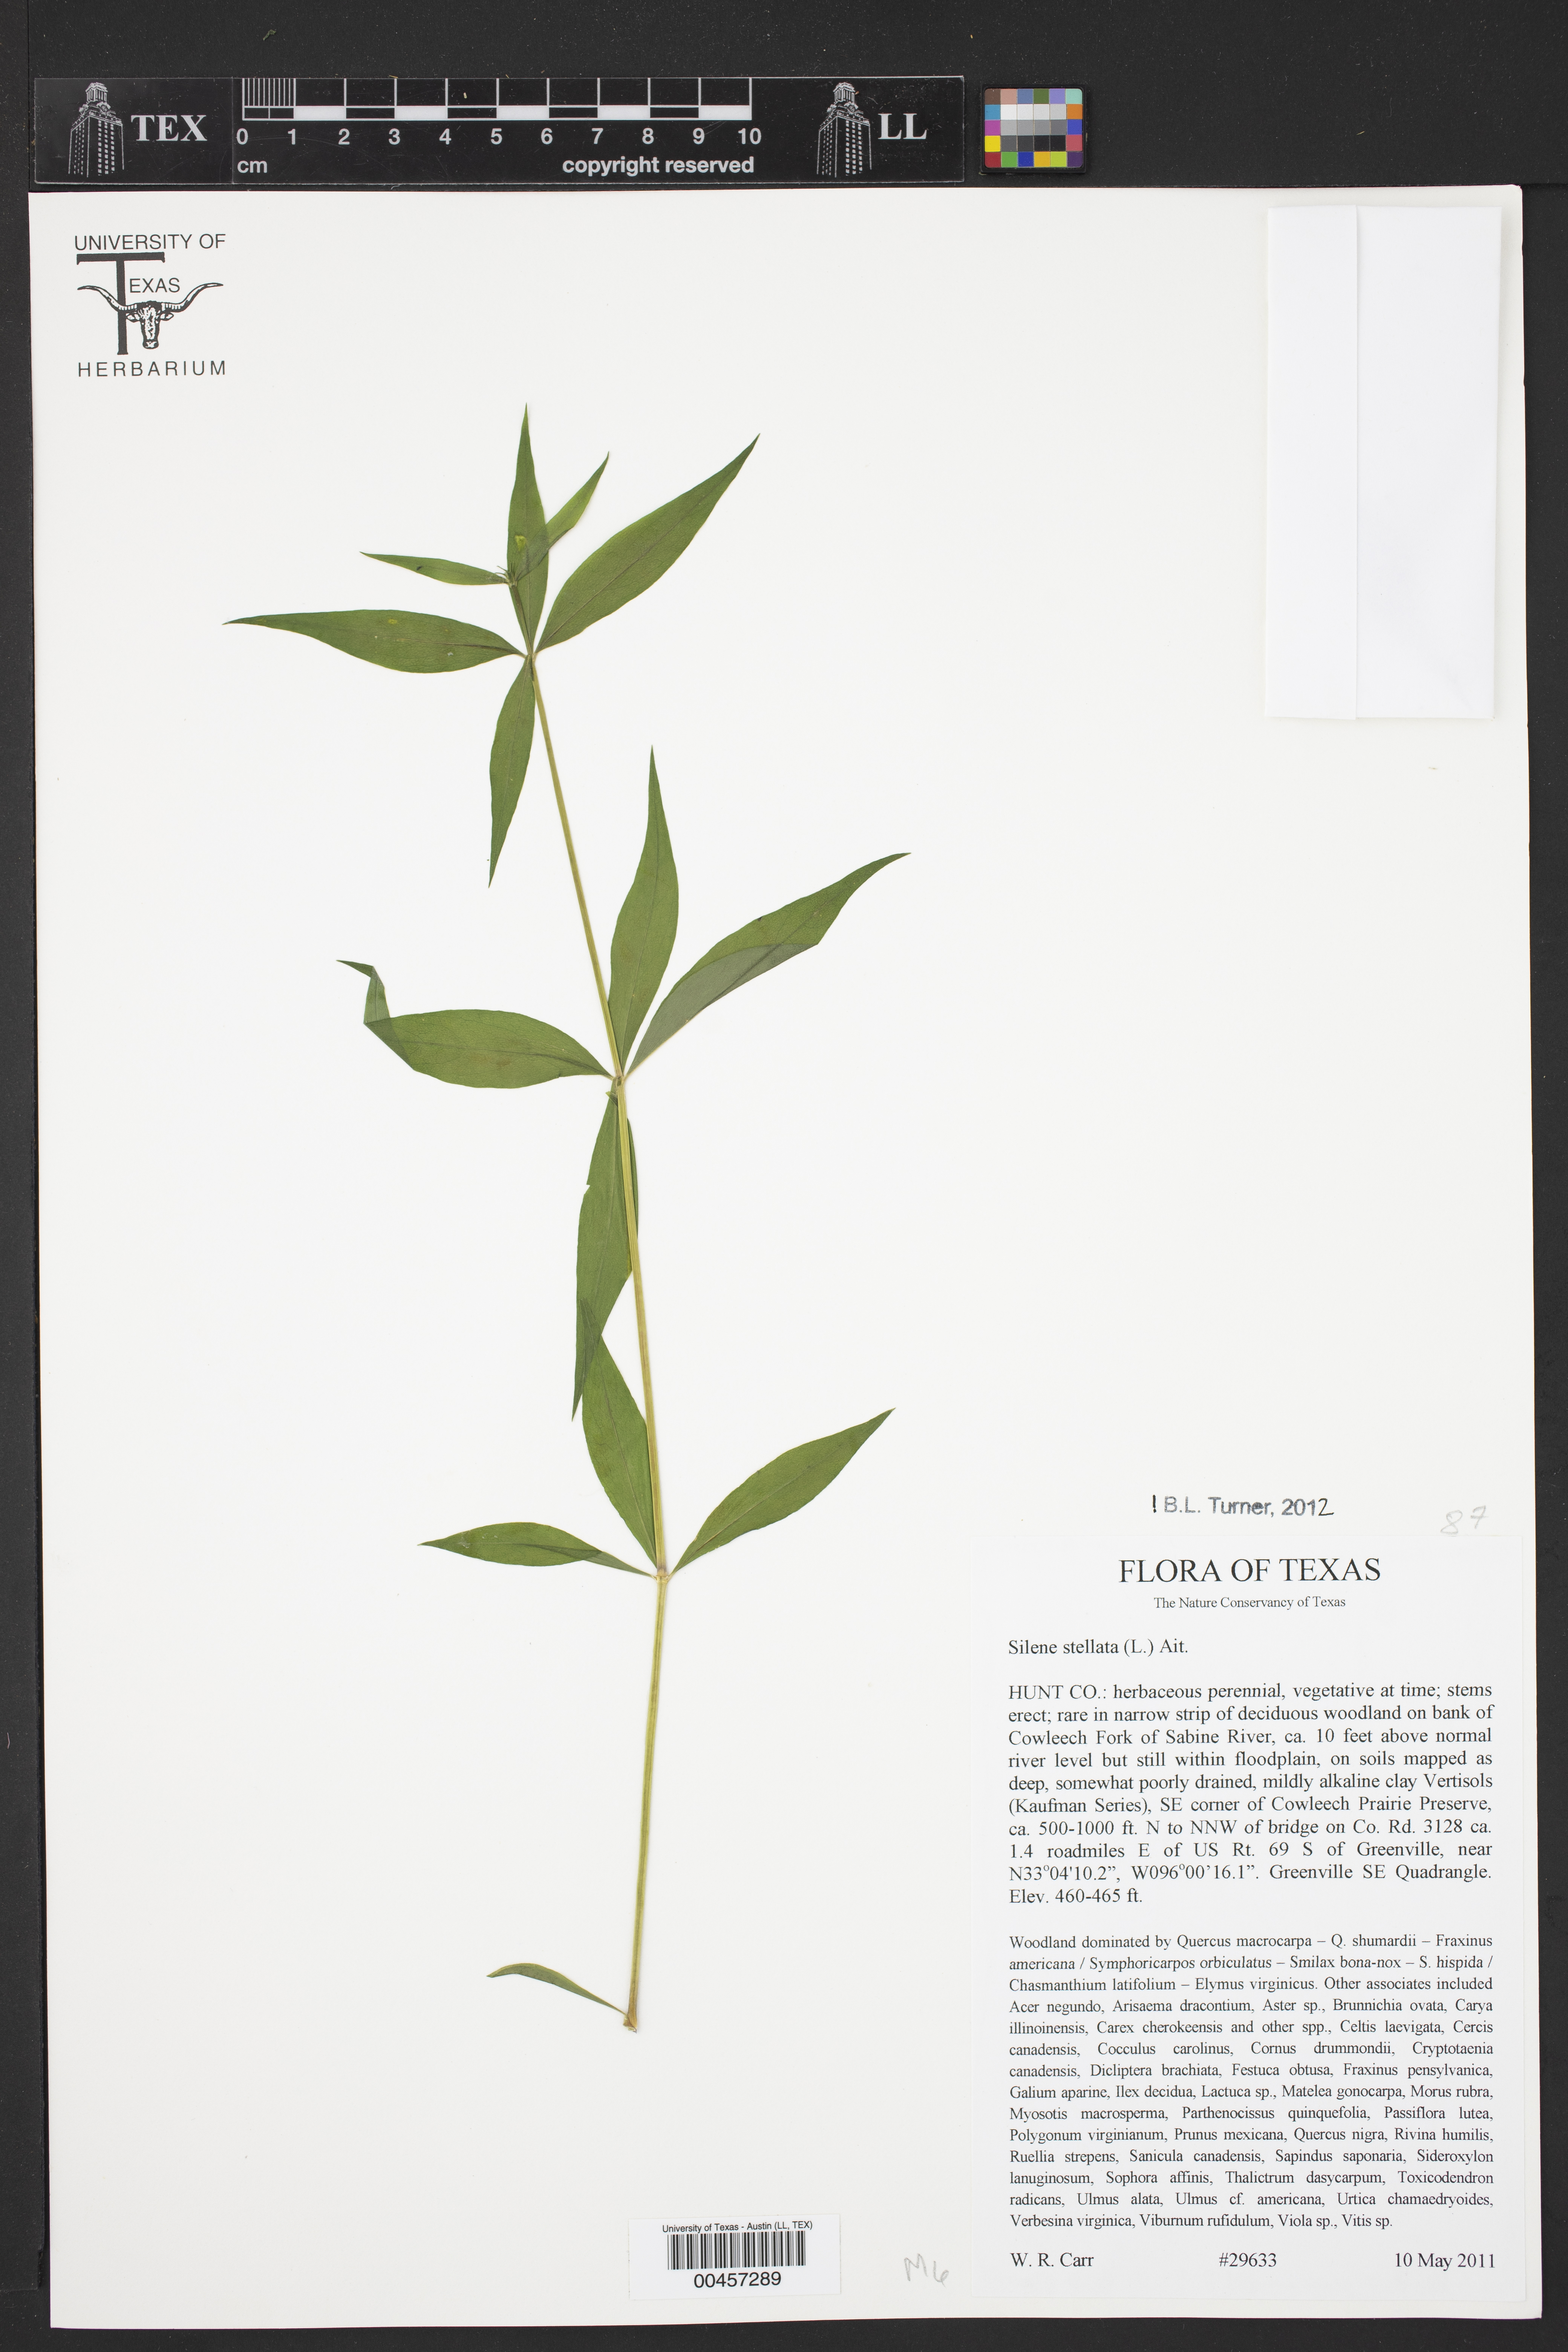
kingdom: Plantae
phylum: Tracheophyta
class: Magnoliopsida
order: Caryophyllales
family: Caryophyllaceae
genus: Silene
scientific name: Silene stellata
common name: Starry campion
